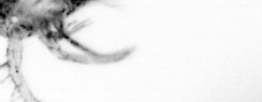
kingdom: Animalia
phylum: Arthropoda
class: Copepoda
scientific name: Copepoda
